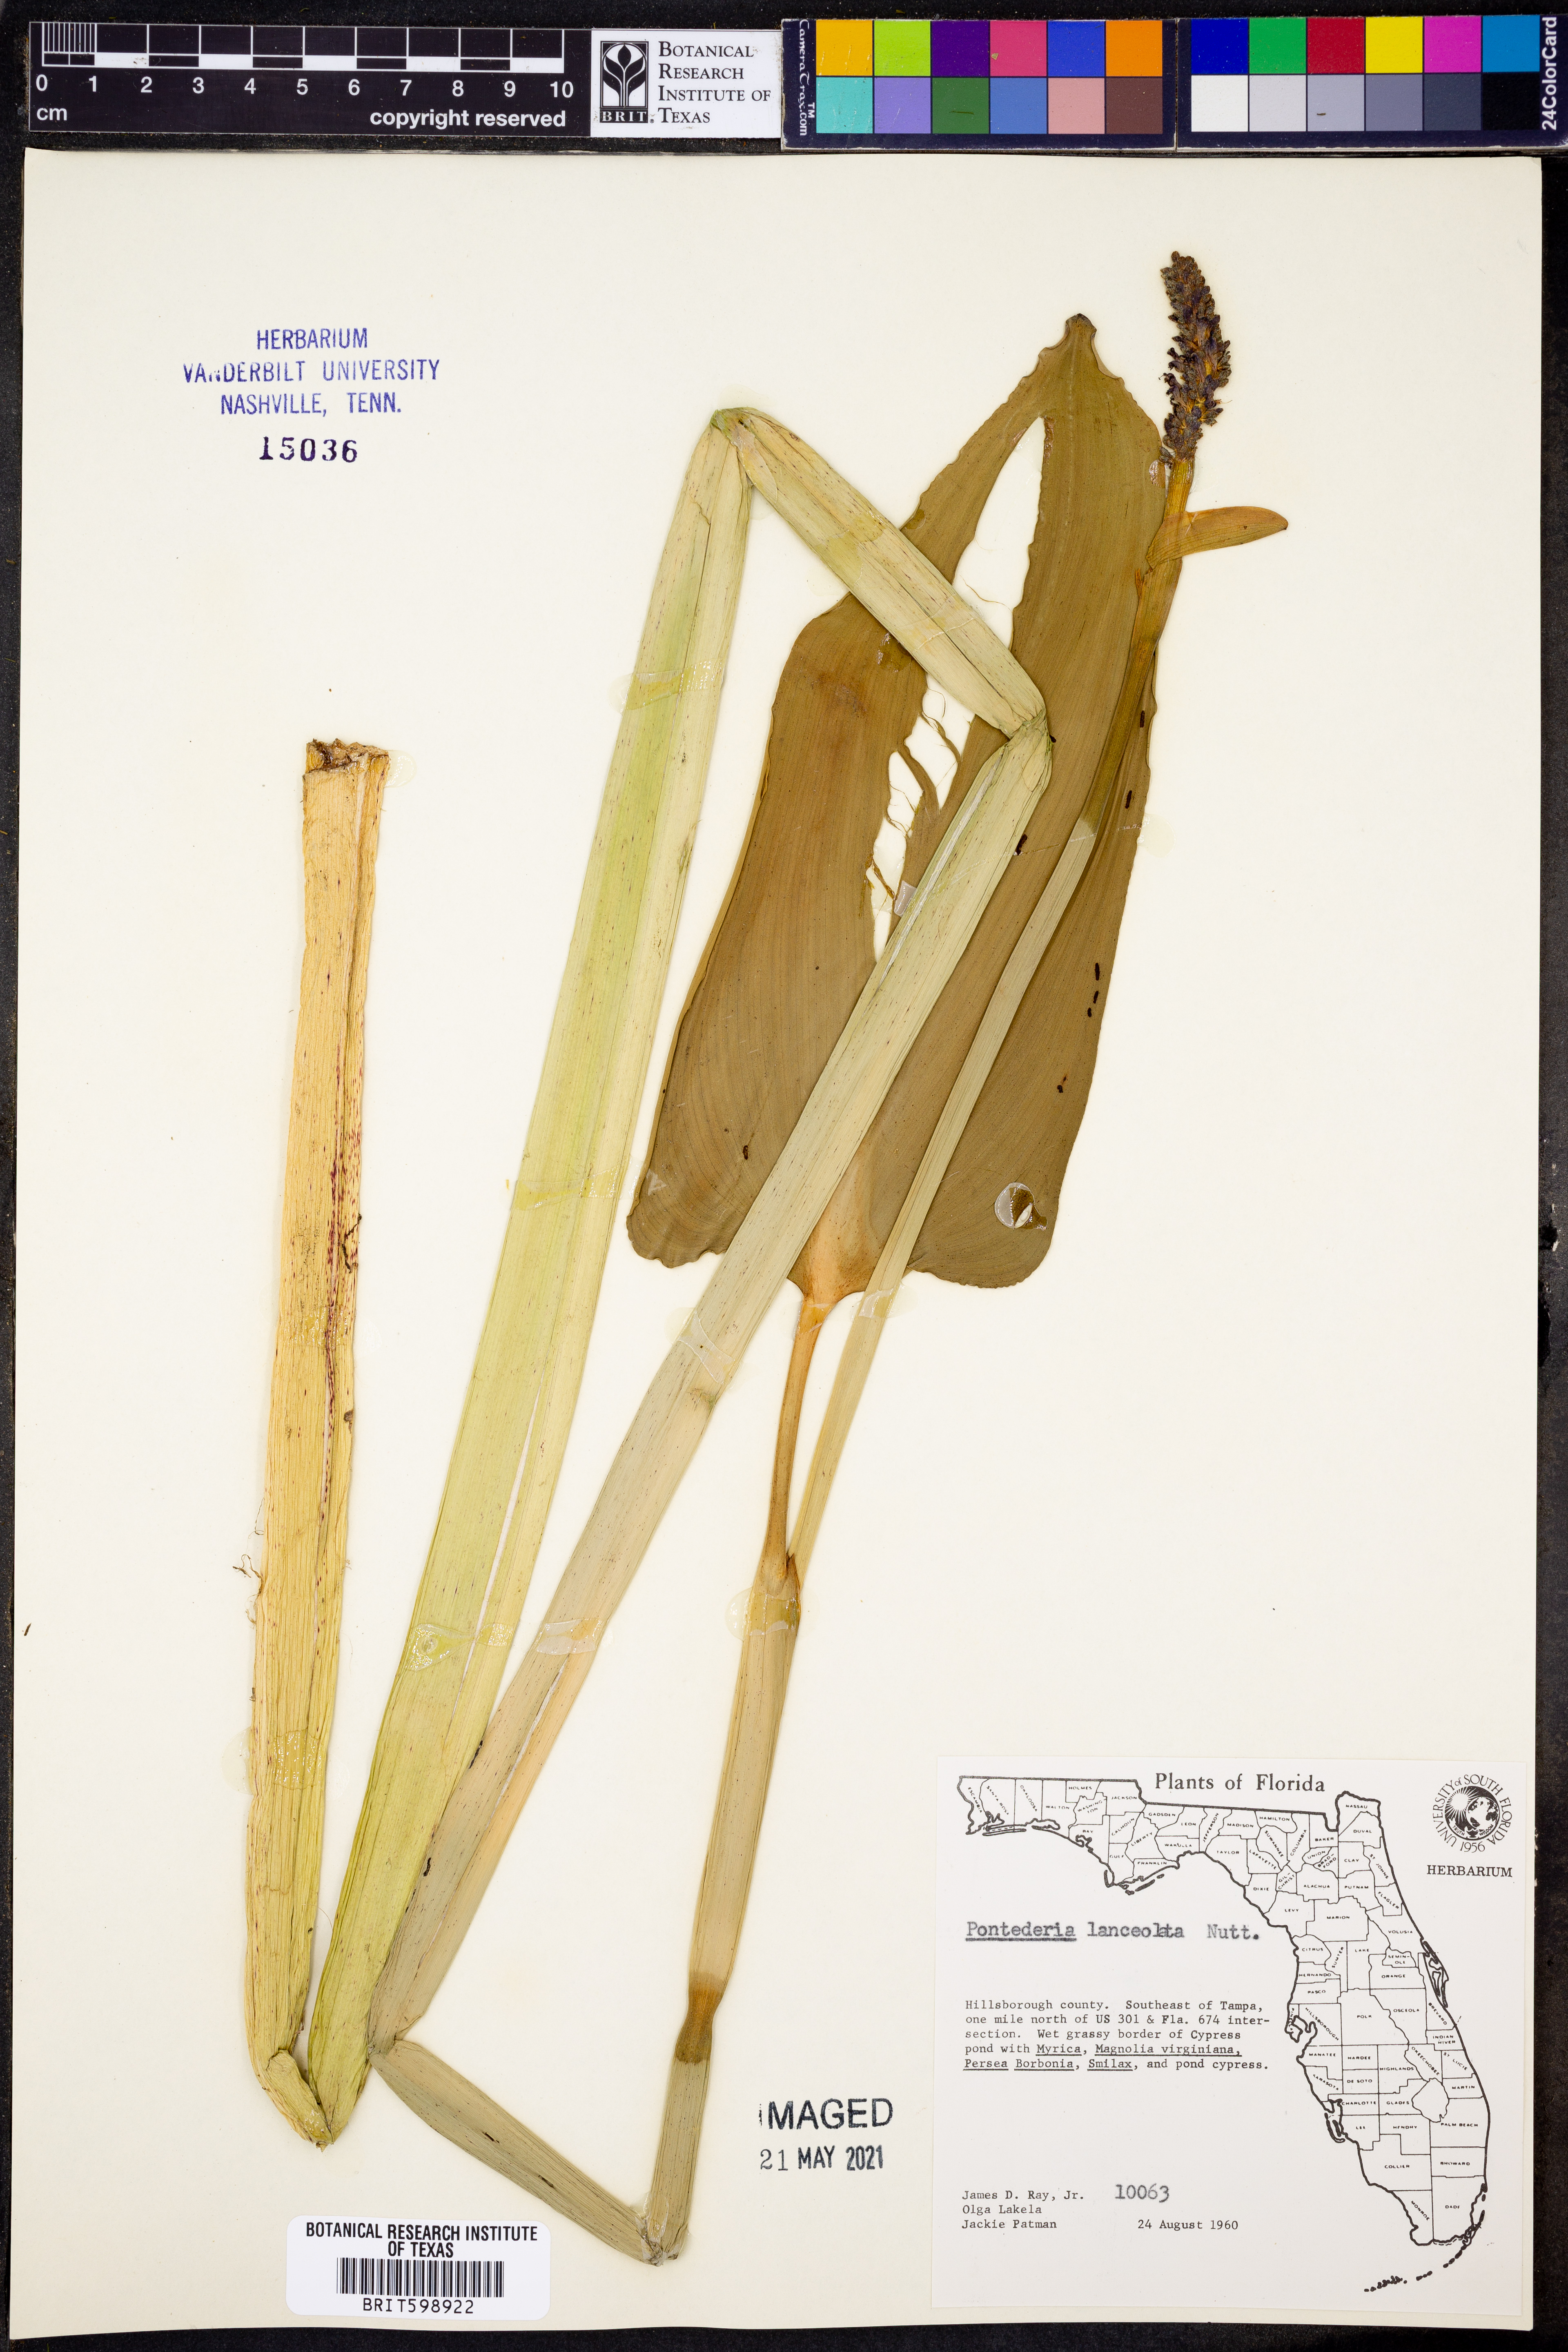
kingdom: Plantae
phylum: Tracheophyta
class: Liliopsida
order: Commelinales
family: Pontederiaceae
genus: Pontederia
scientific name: Pontederia cordata
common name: Pickerelweed
